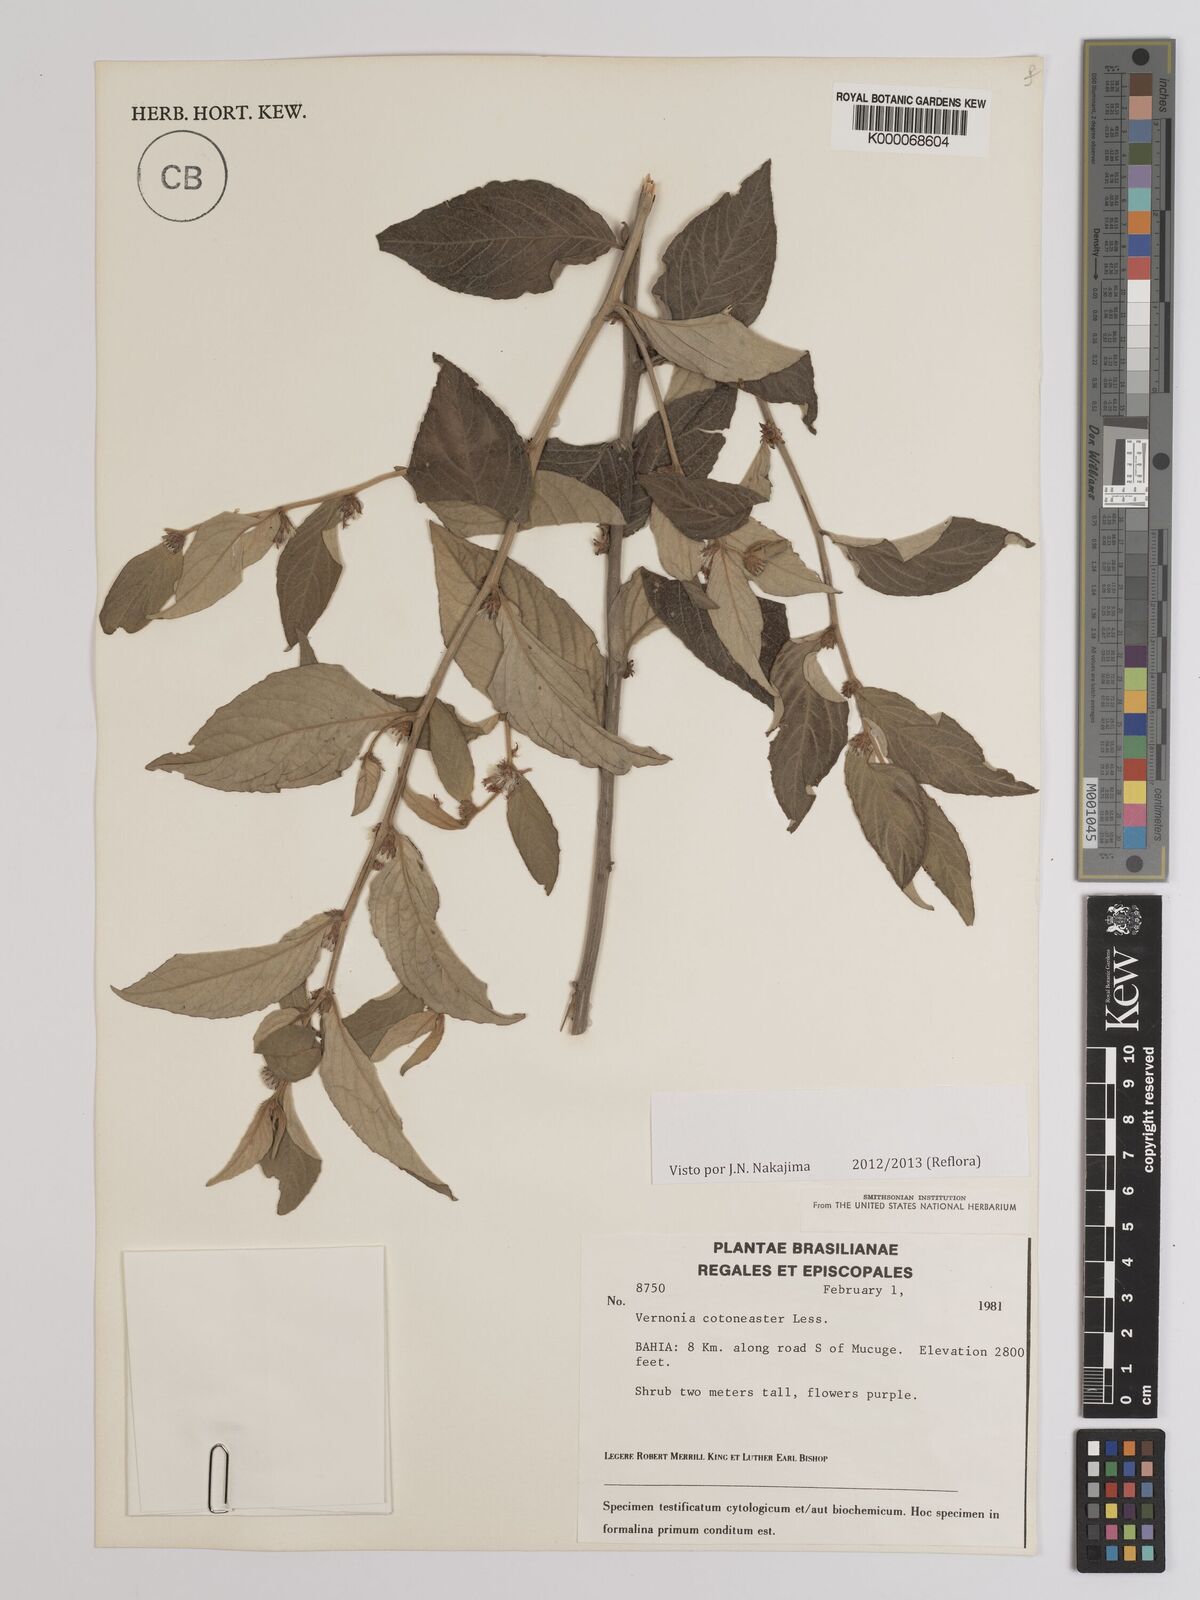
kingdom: Plantae
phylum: Tracheophyta
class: Magnoliopsida
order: Asterales
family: Asteraceae
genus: Lepidaploa
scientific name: Lepidaploa cotoneaster
